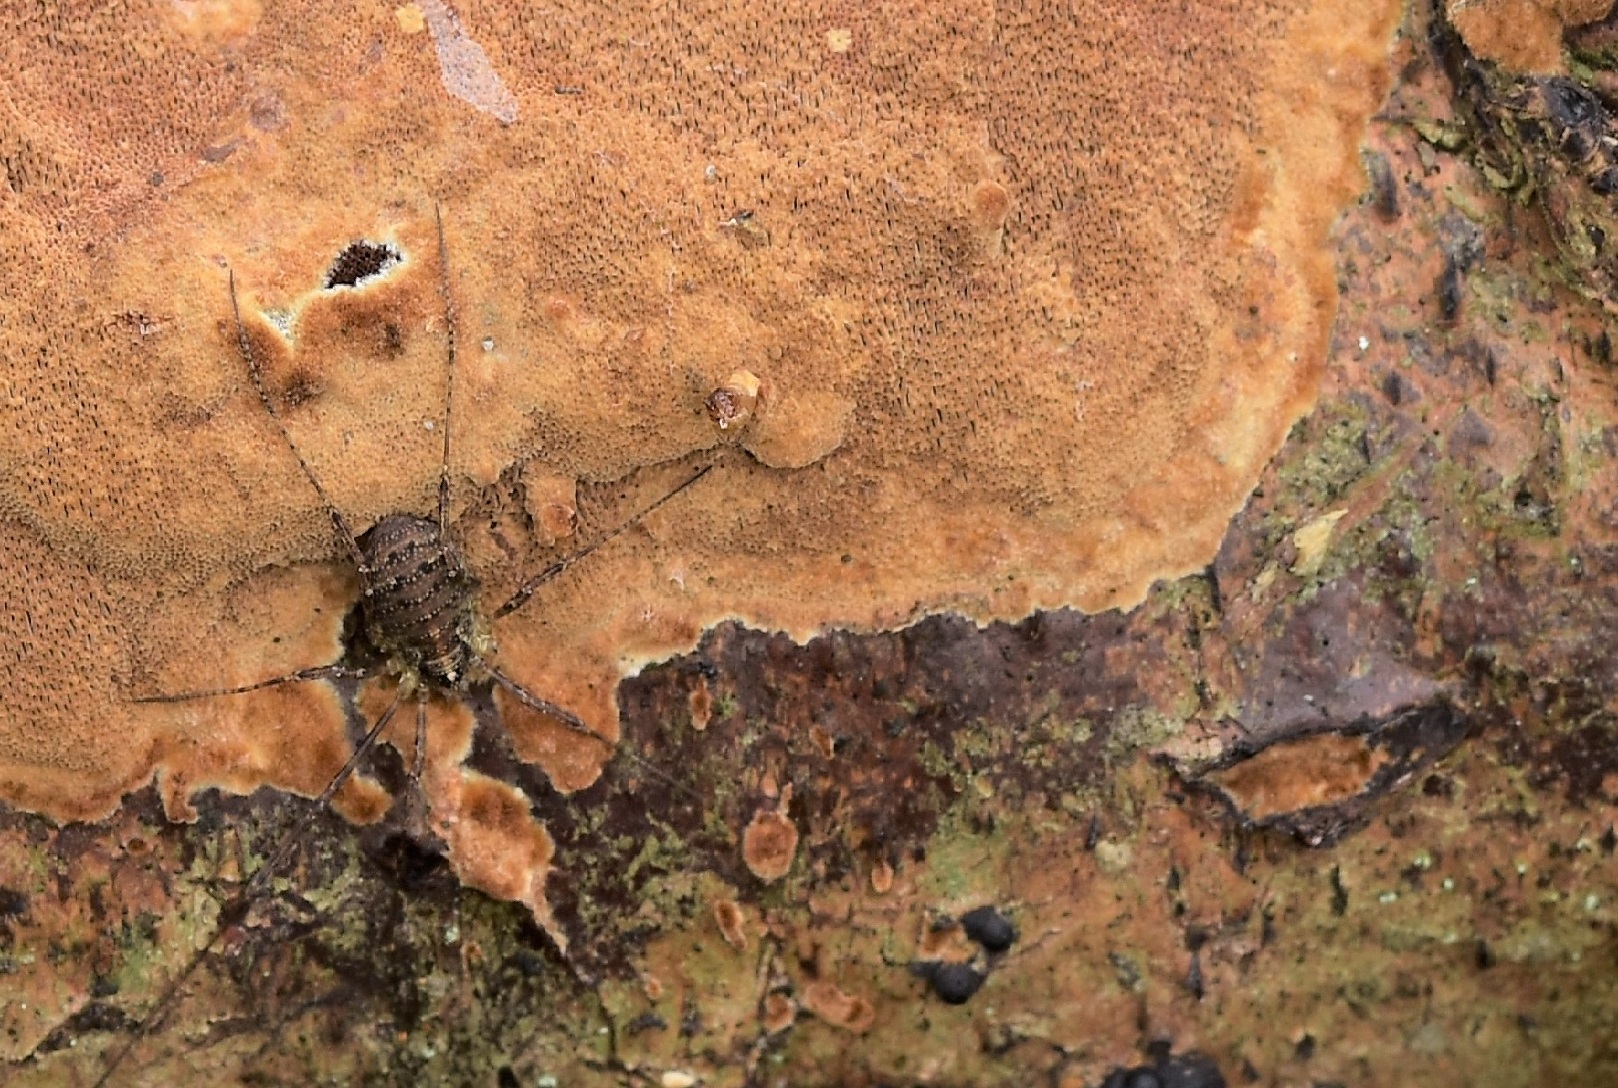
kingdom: Fungi
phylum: Basidiomycota
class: Agaricomycetes
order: Hymenochaetales
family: Hymenochaetaceae
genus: Fuscoporia
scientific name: Fuscoporia ferrea
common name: skorpe-ildporesvamp
